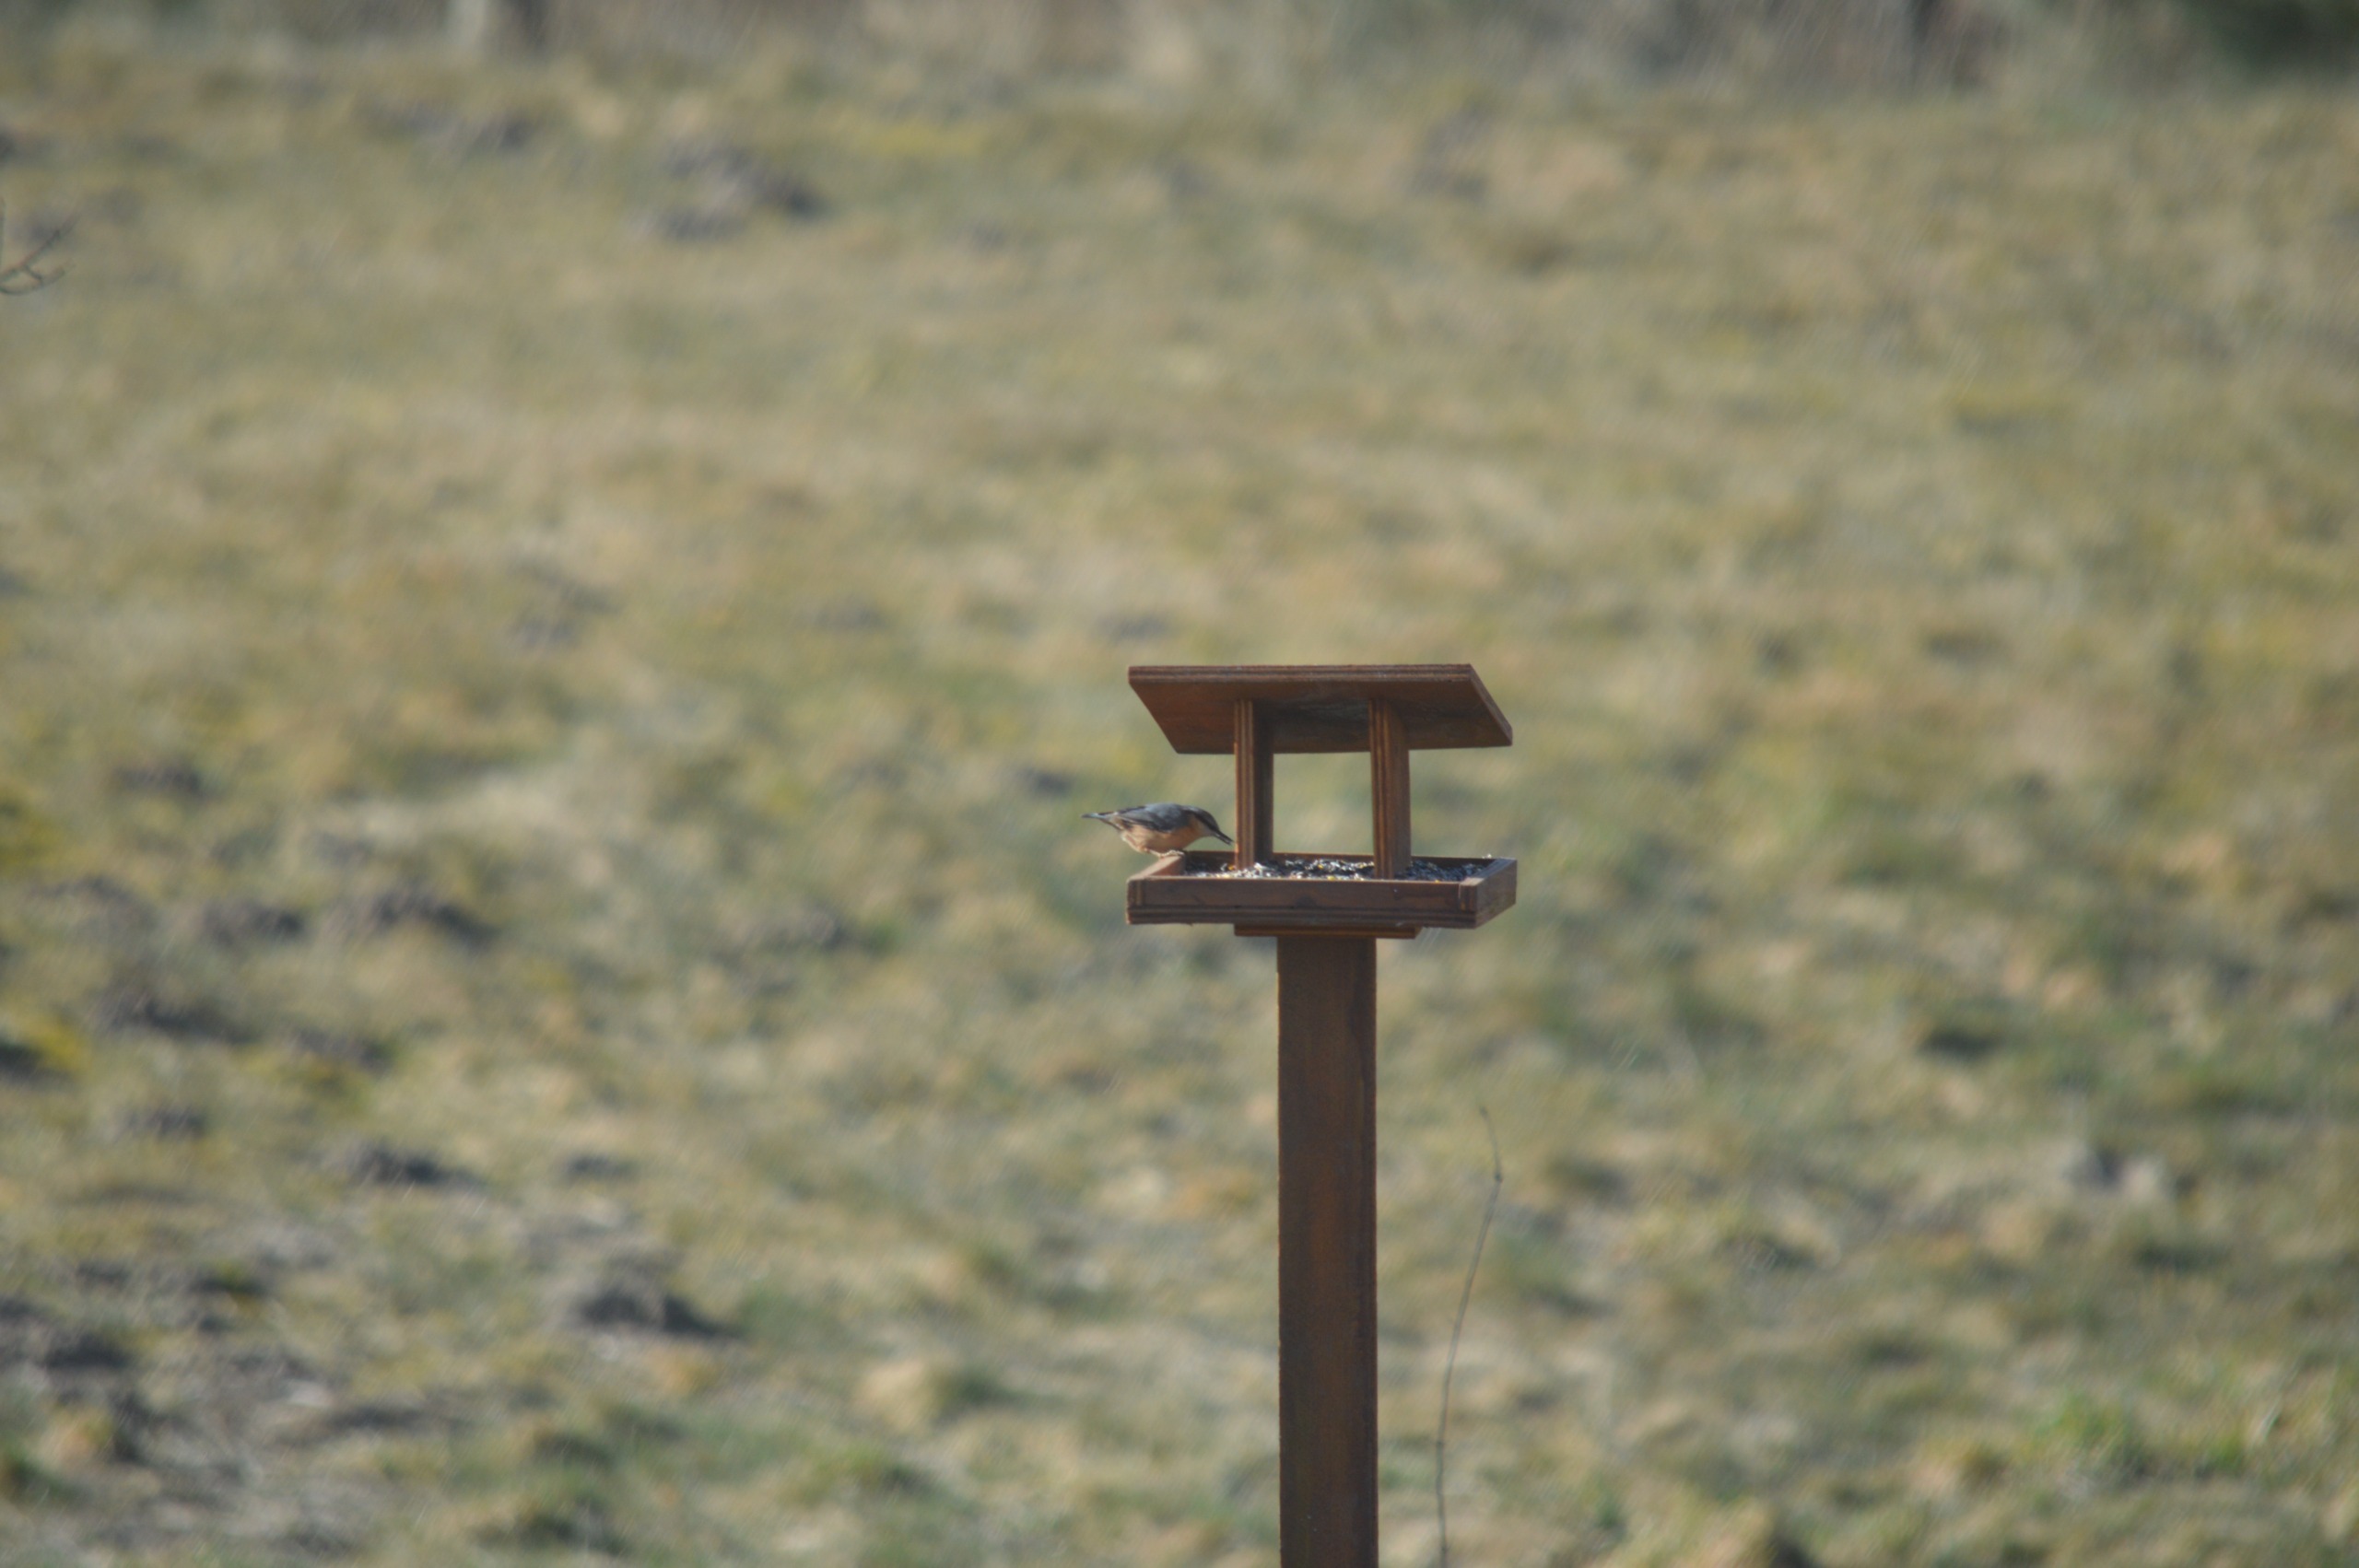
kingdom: Animalia
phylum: Chordata
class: Aves
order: Passeriformes
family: Sittidae
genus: Sitta
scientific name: Sitta europaea
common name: Spætmejse
